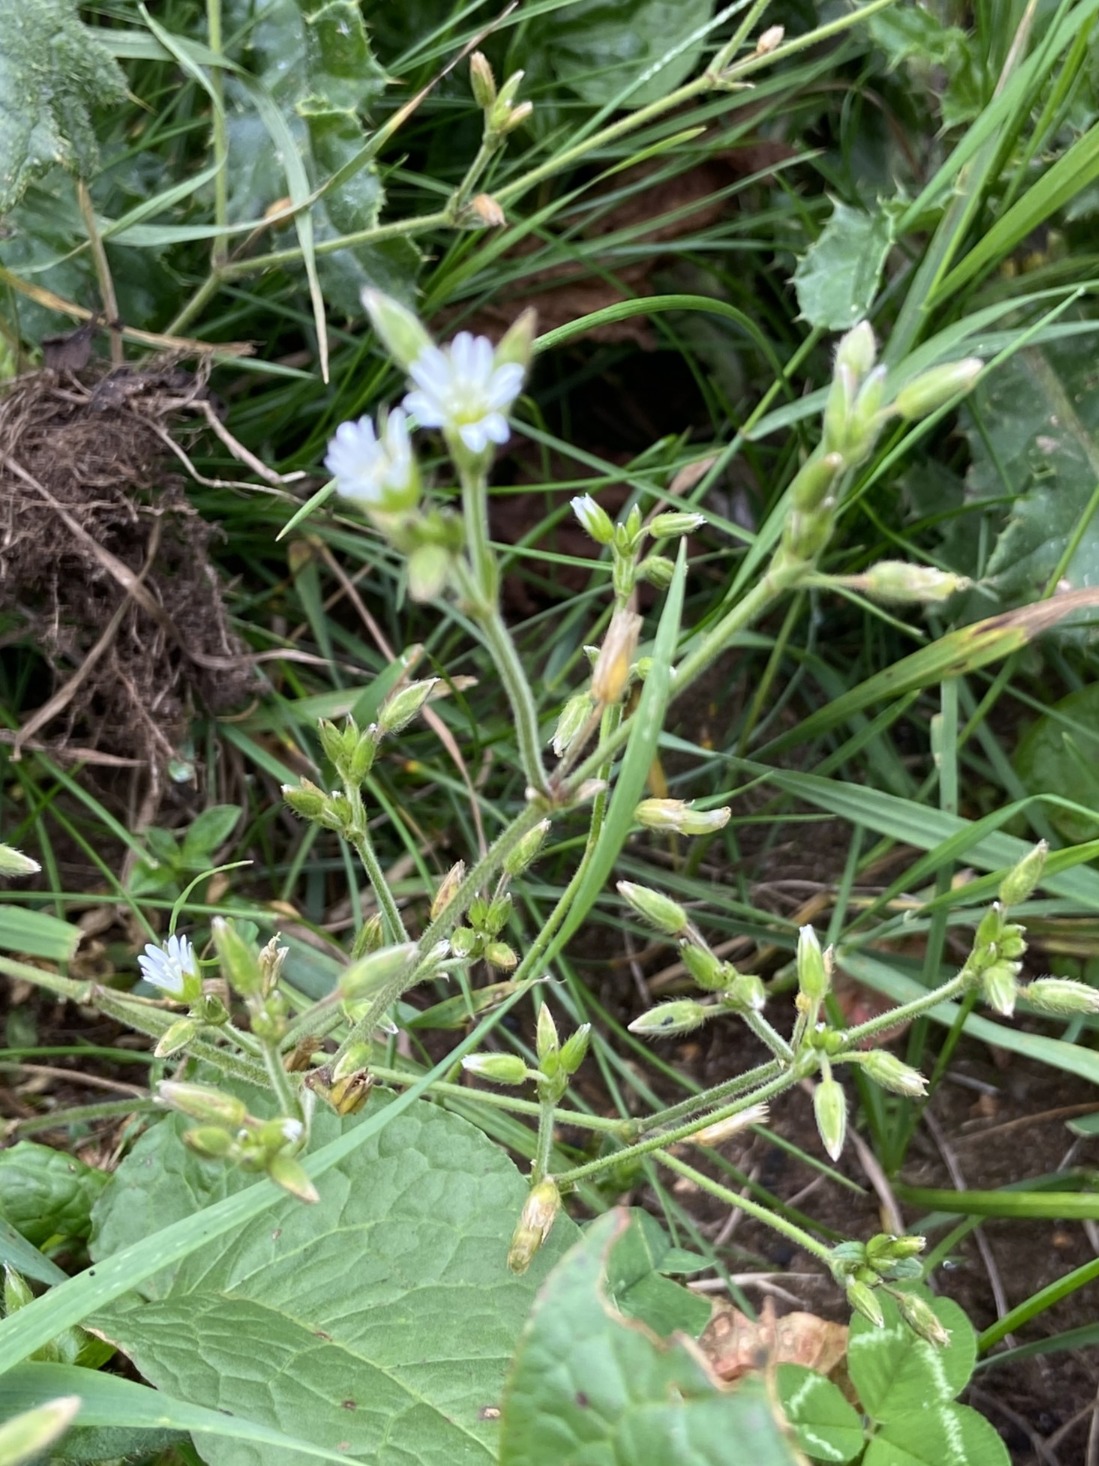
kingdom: Plantae
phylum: Tracheophyta
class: Magnoliopsida
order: Caryophyllales
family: Caryophyllaceae
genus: Cerastium
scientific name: Cerastium fontanum
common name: Almindelig hønsetarm
